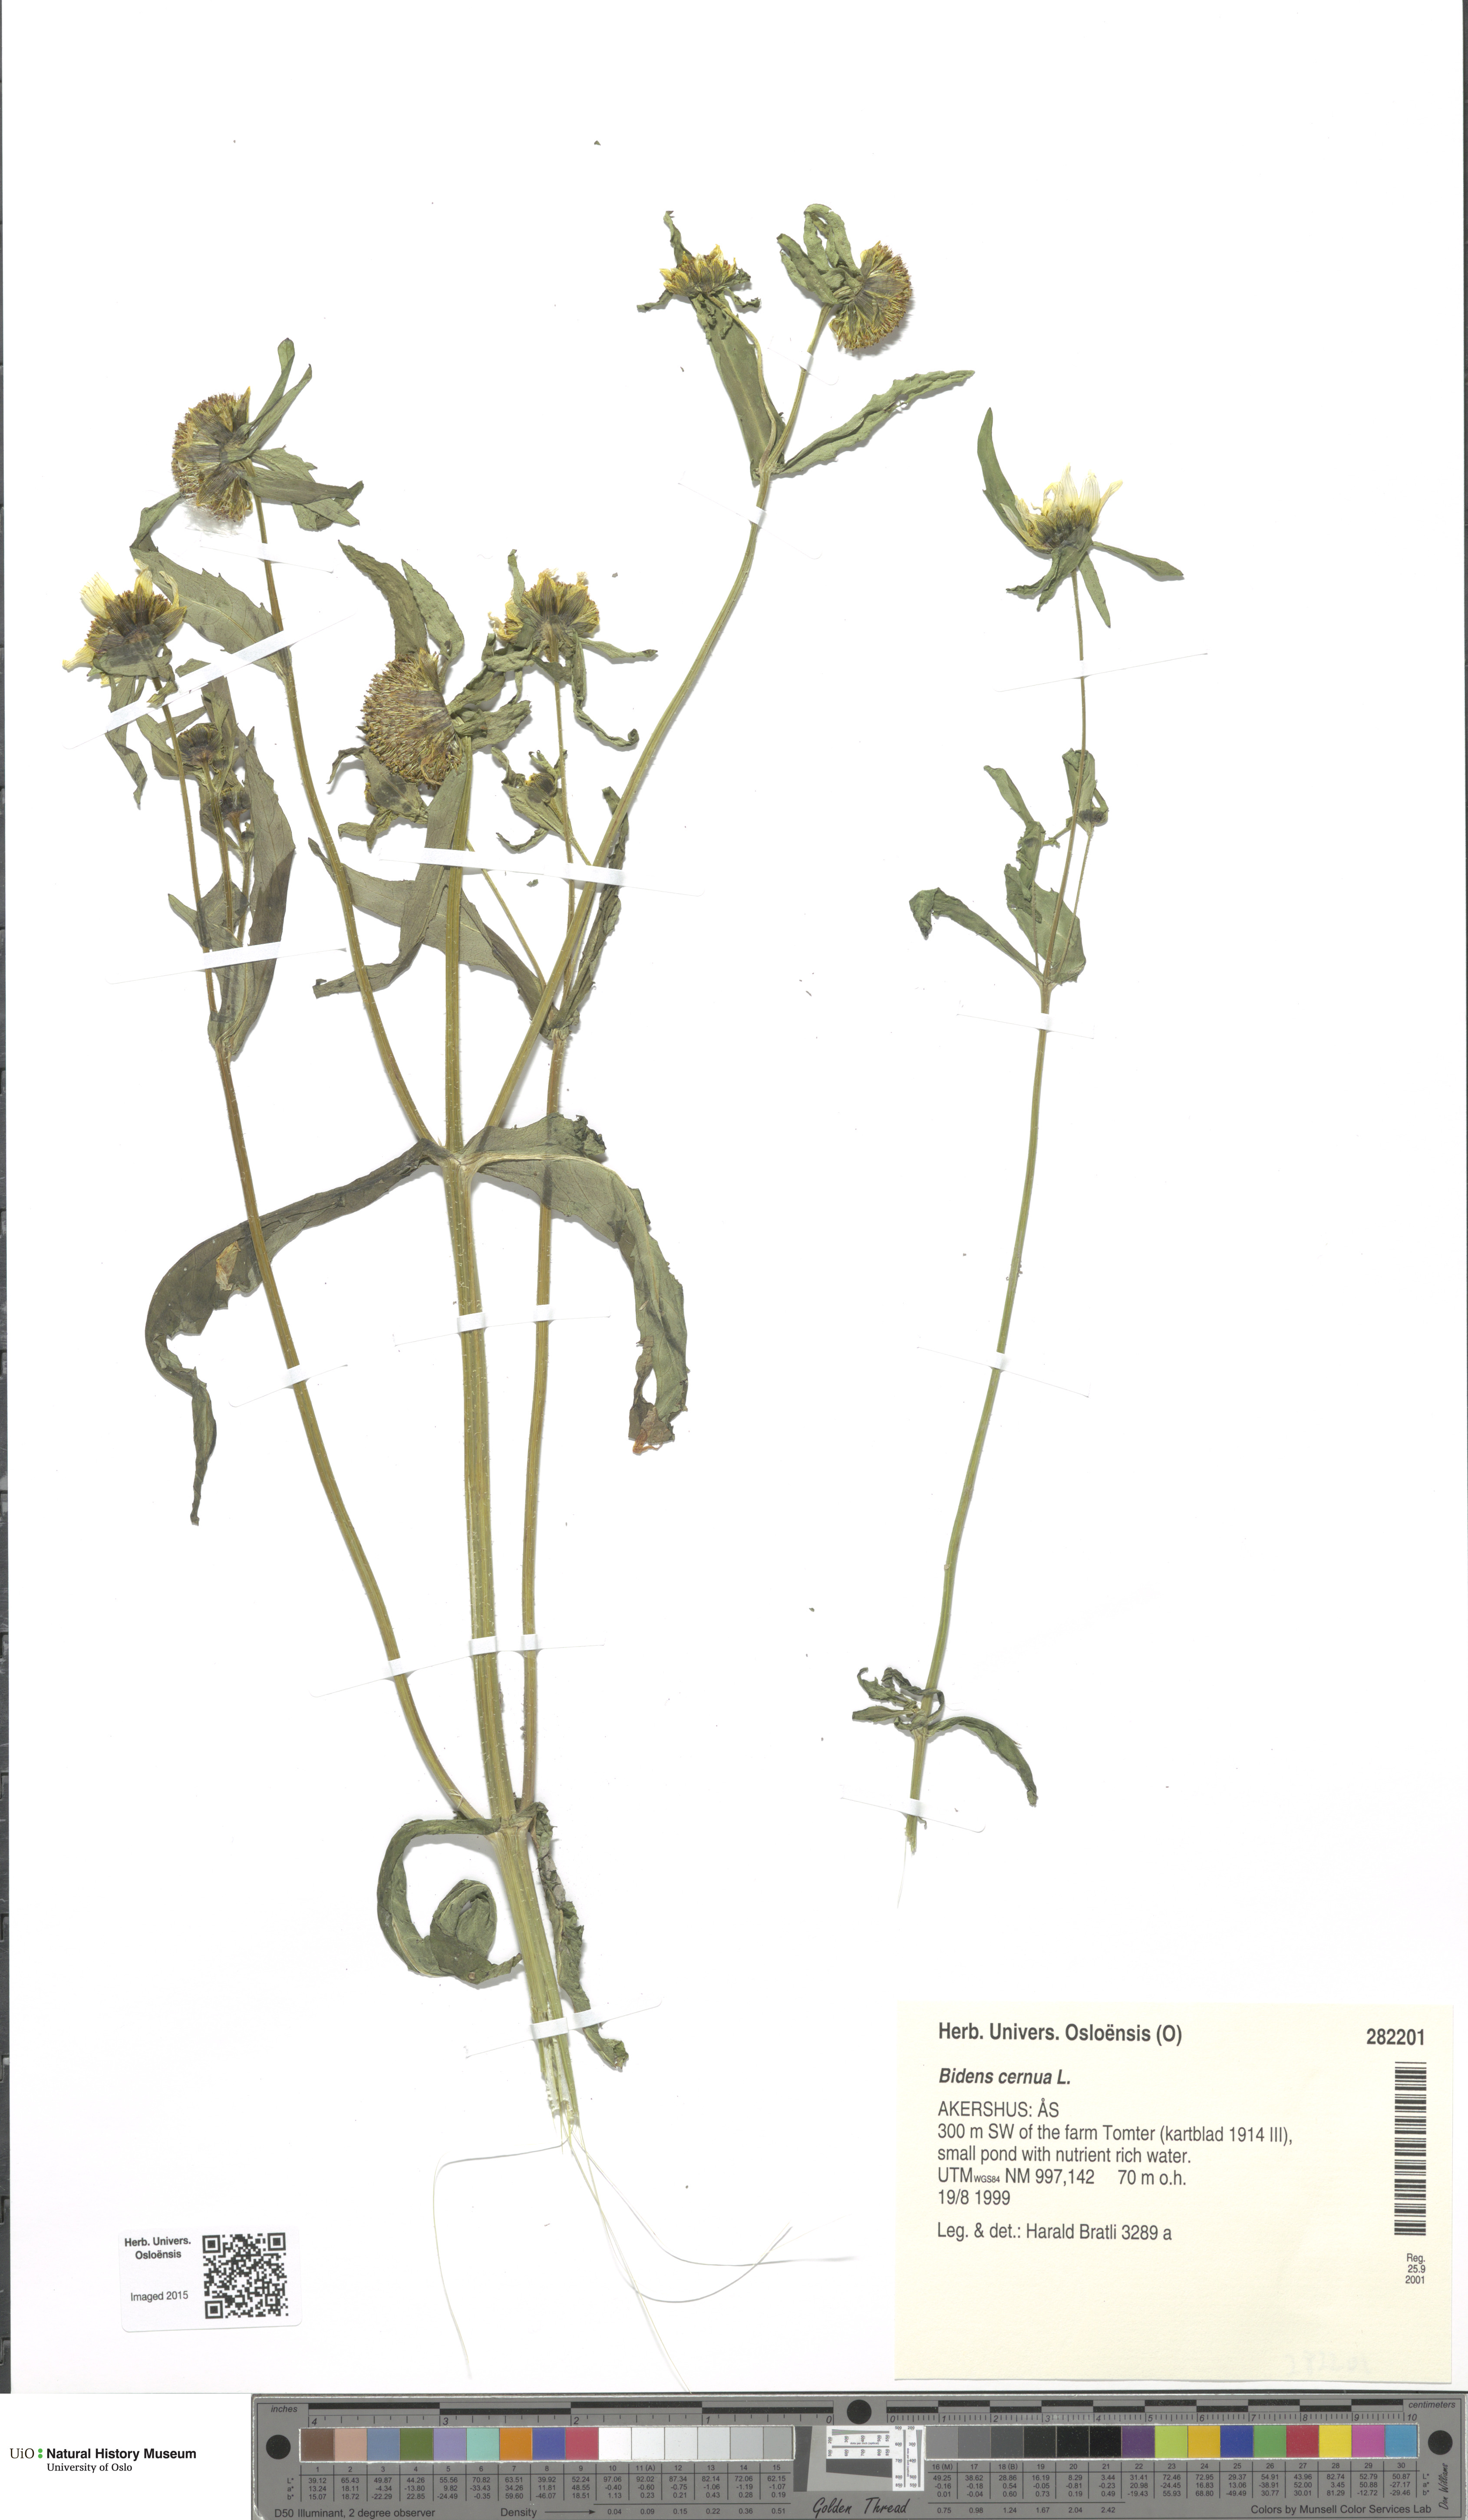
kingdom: Plantae
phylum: Tracheophyta
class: Magnoliopsida
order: Asterales
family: Asteraceae
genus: Bidens
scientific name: Bidens cernua
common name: Nodding bur-marigold
